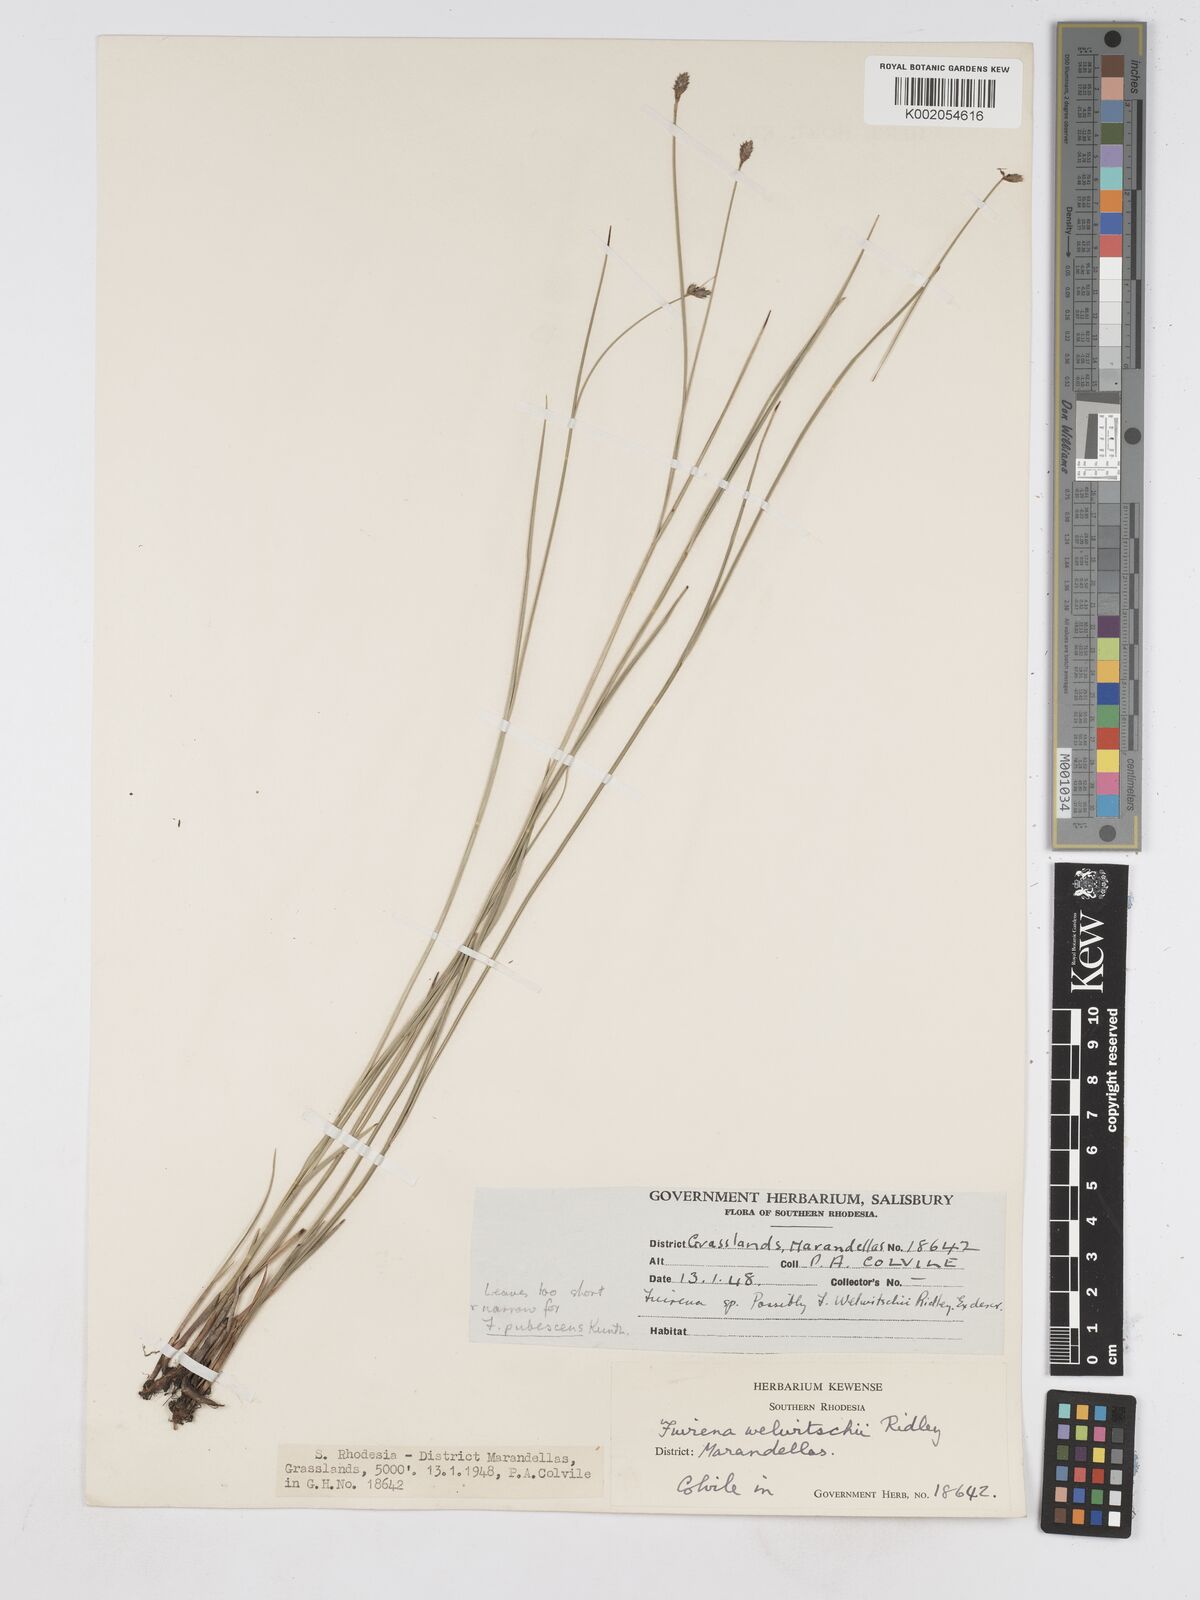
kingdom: Plantae
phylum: Tracheophyta
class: Liliopsida
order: Poales
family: Cyperaceae
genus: Fuirena
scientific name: Fuirena welwitschii
